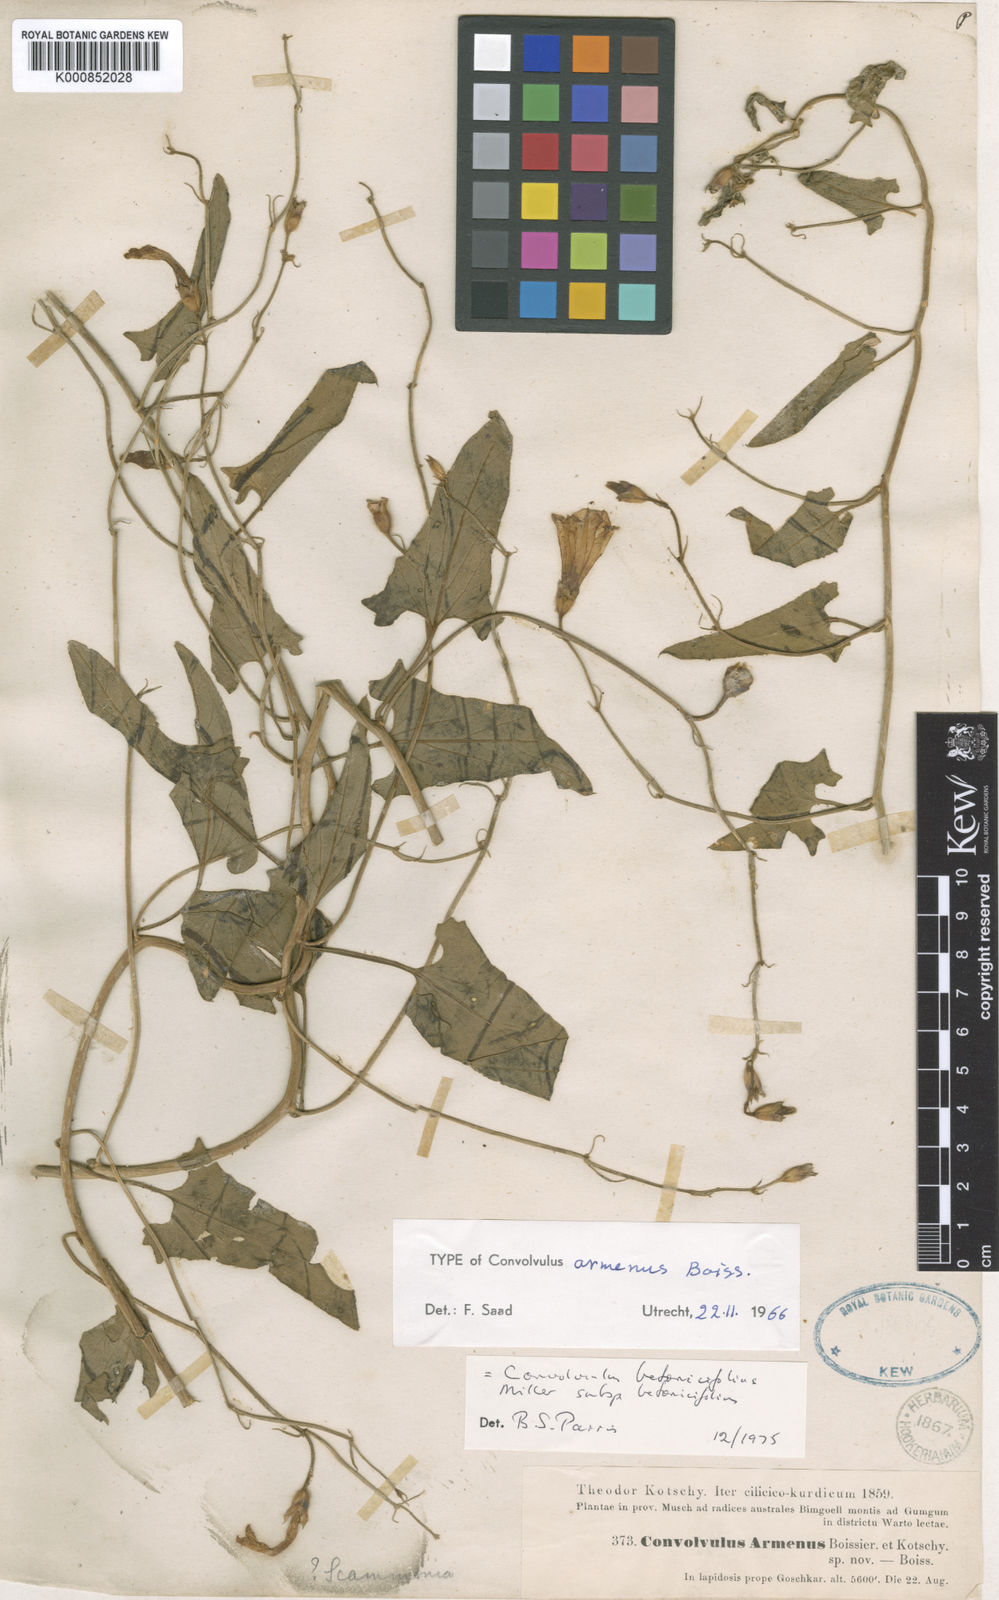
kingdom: Plantae
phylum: Tracheophyta
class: Magnoliopsida
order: Solanales
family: Convolvulaceae
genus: Convolvulus
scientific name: Convolvulus betonicifolius
